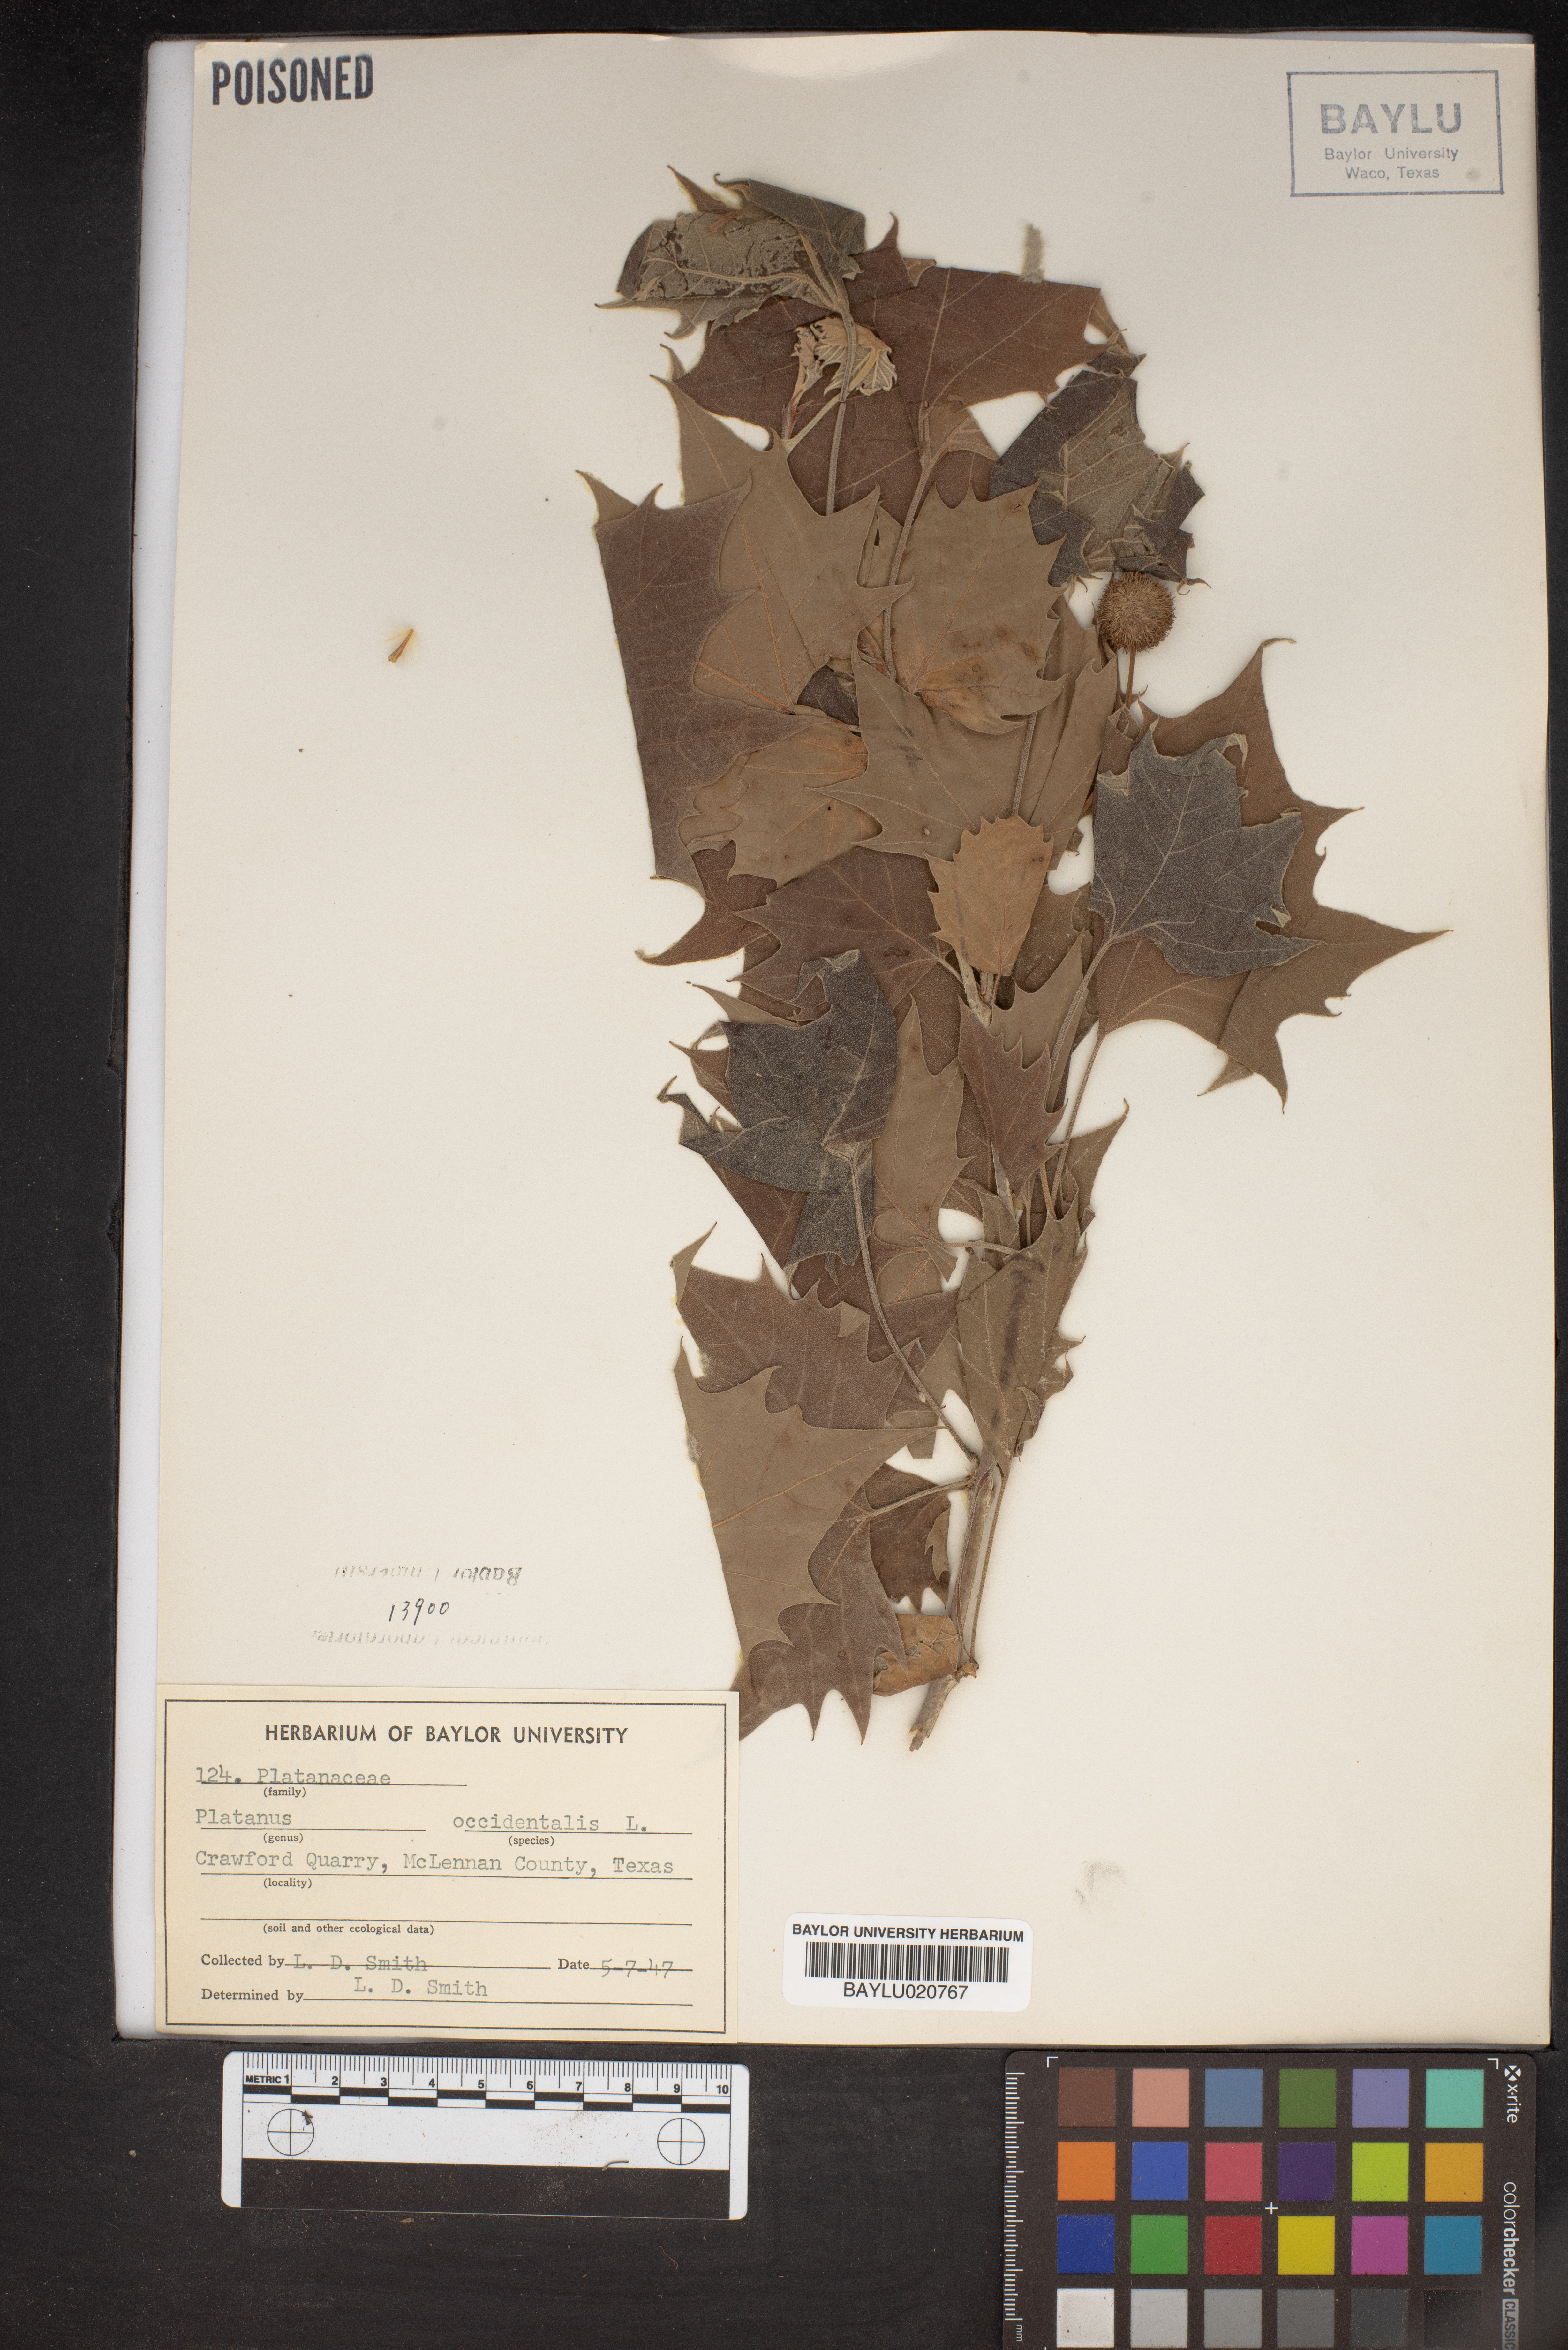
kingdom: Plantae
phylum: Tracheophyta
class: Magnoliopsida
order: Proteales
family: Platanaceae
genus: Platanus
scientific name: Platanus occidentalis
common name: American sycamore
